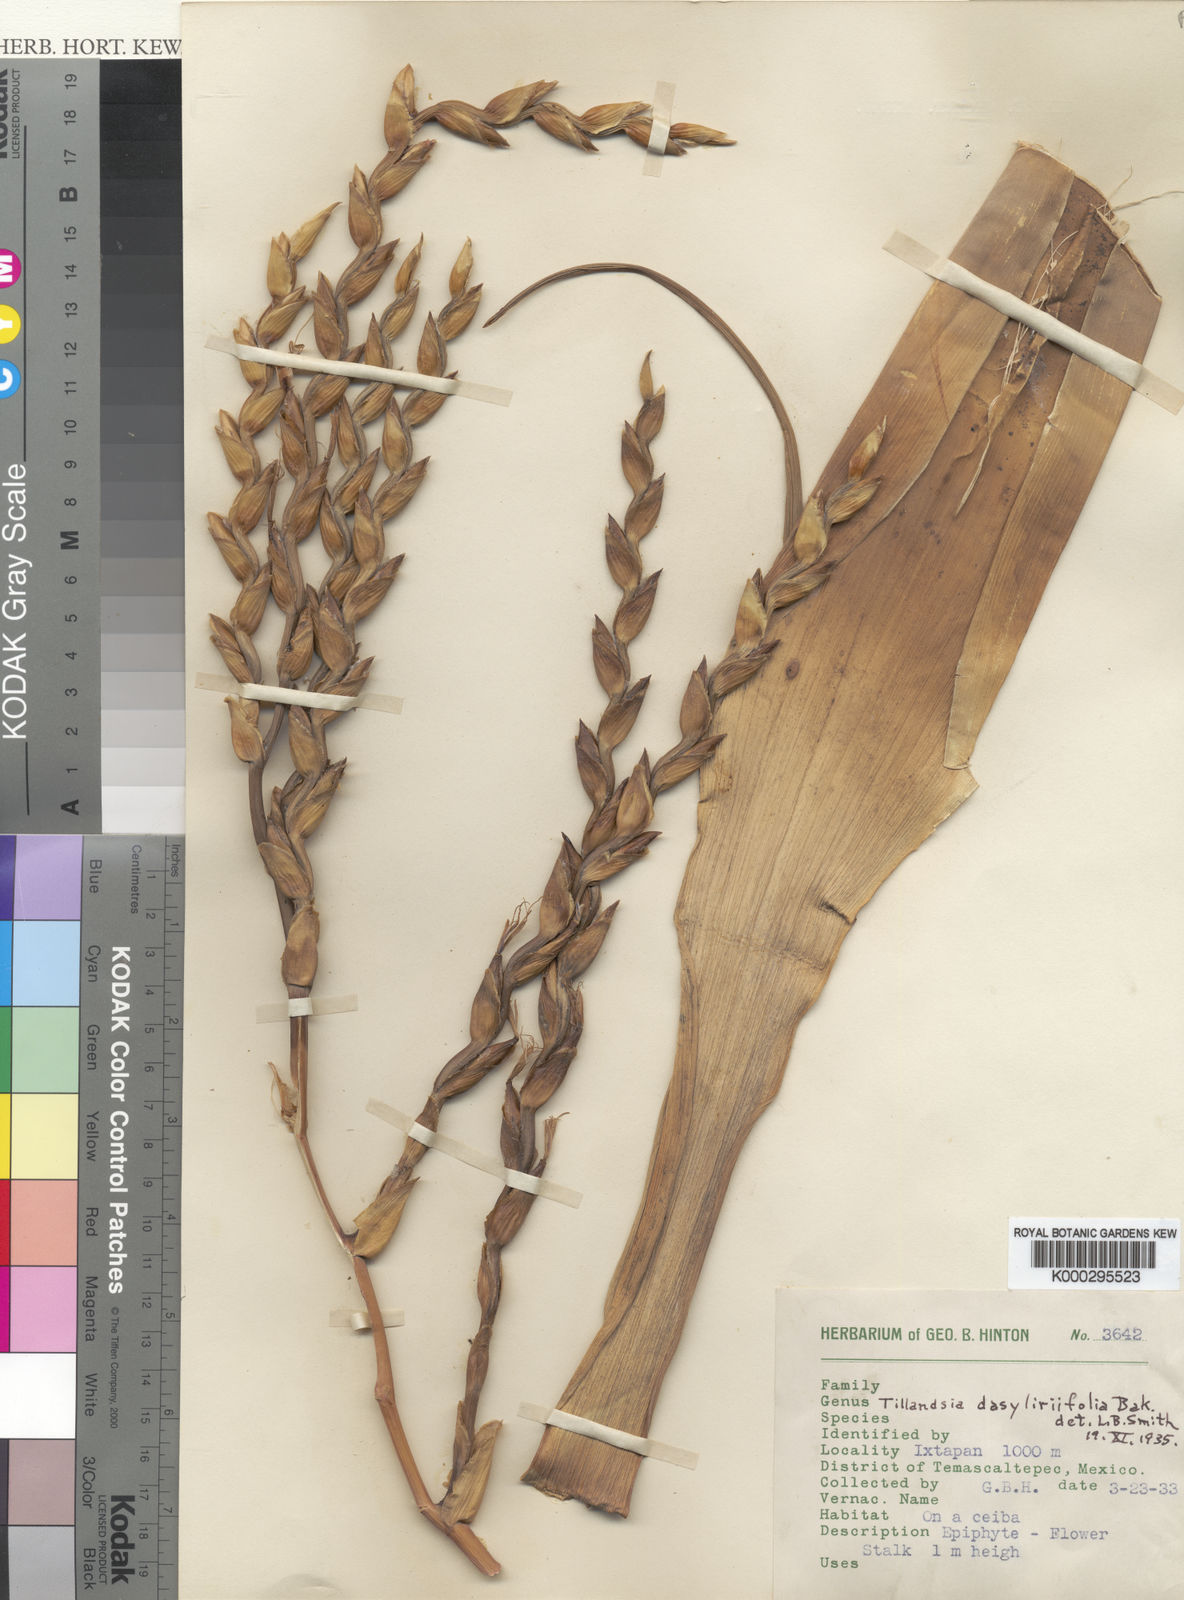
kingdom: Plantae
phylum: Tracheophyta
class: Liliopsida
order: Poales
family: Bromeliaceae
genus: Tillandsia
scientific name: Tillandsia dasyliriifolia
